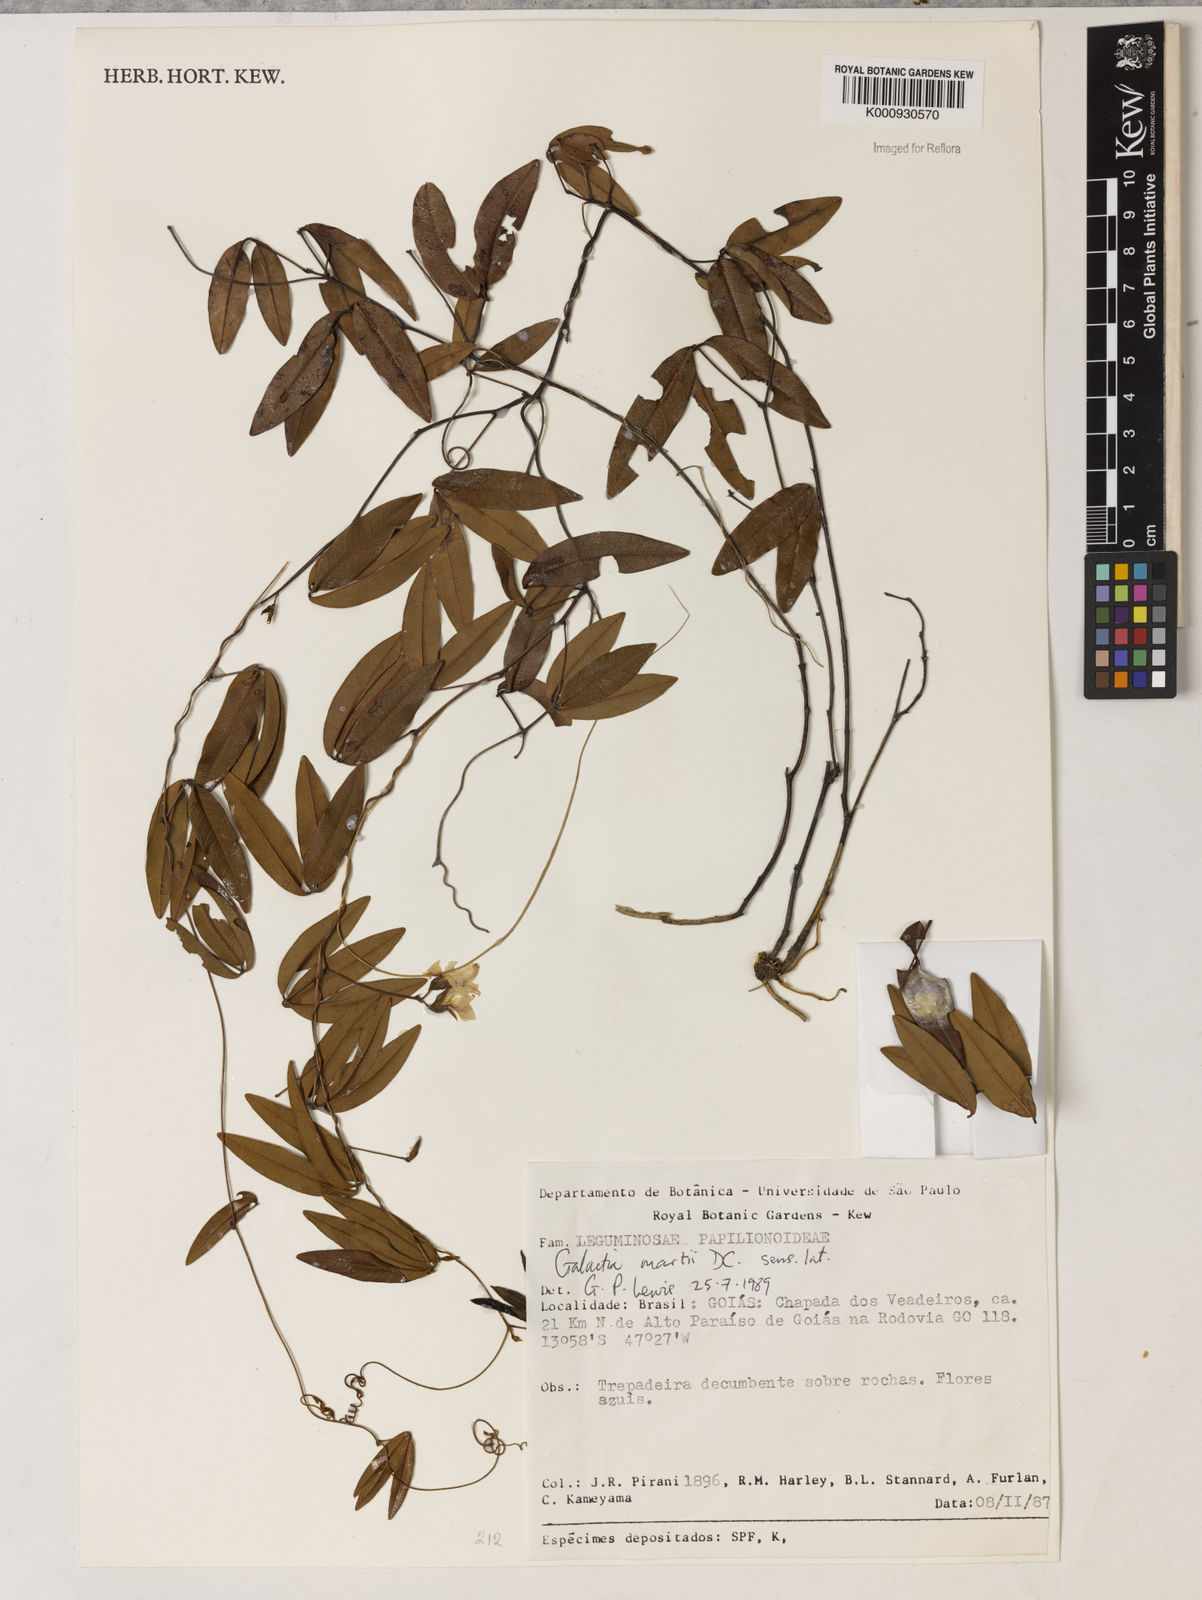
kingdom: Plantae
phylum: Tracheophyta
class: Magnoliopsida
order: Fabales
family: Fabaceae
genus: Betencourtia
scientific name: Betencourtia martii
